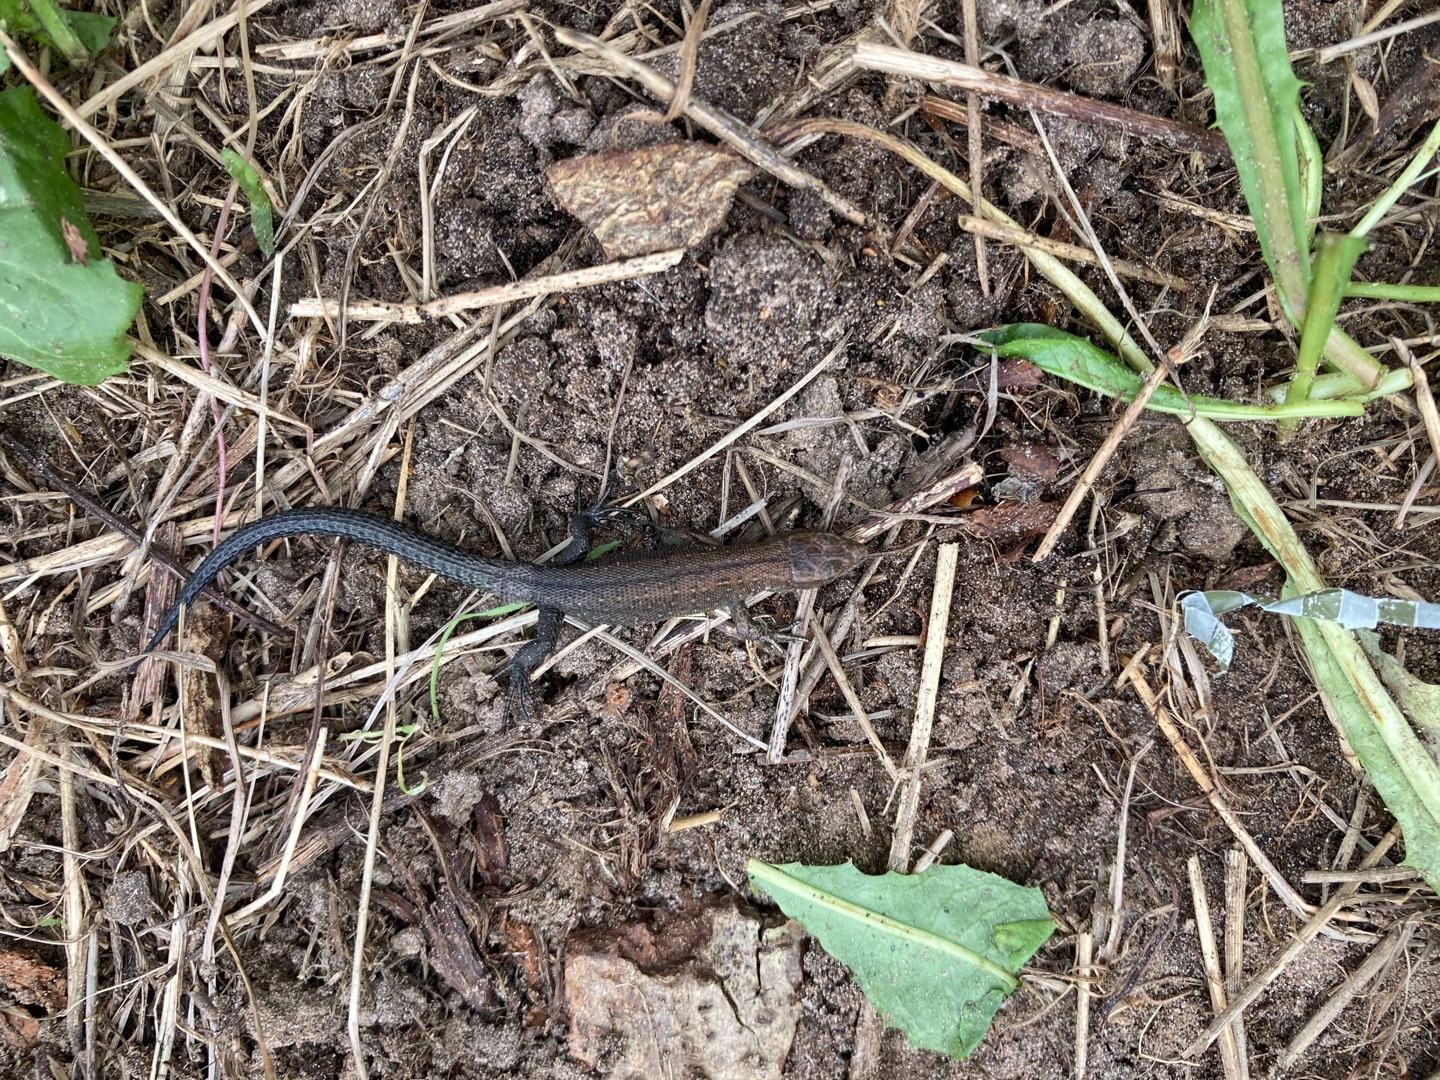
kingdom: Animalia
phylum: Chordata
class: Squamata
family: Lacertidae
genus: Zootoca
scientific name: Zootoca vivipara
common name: Skovfirben
